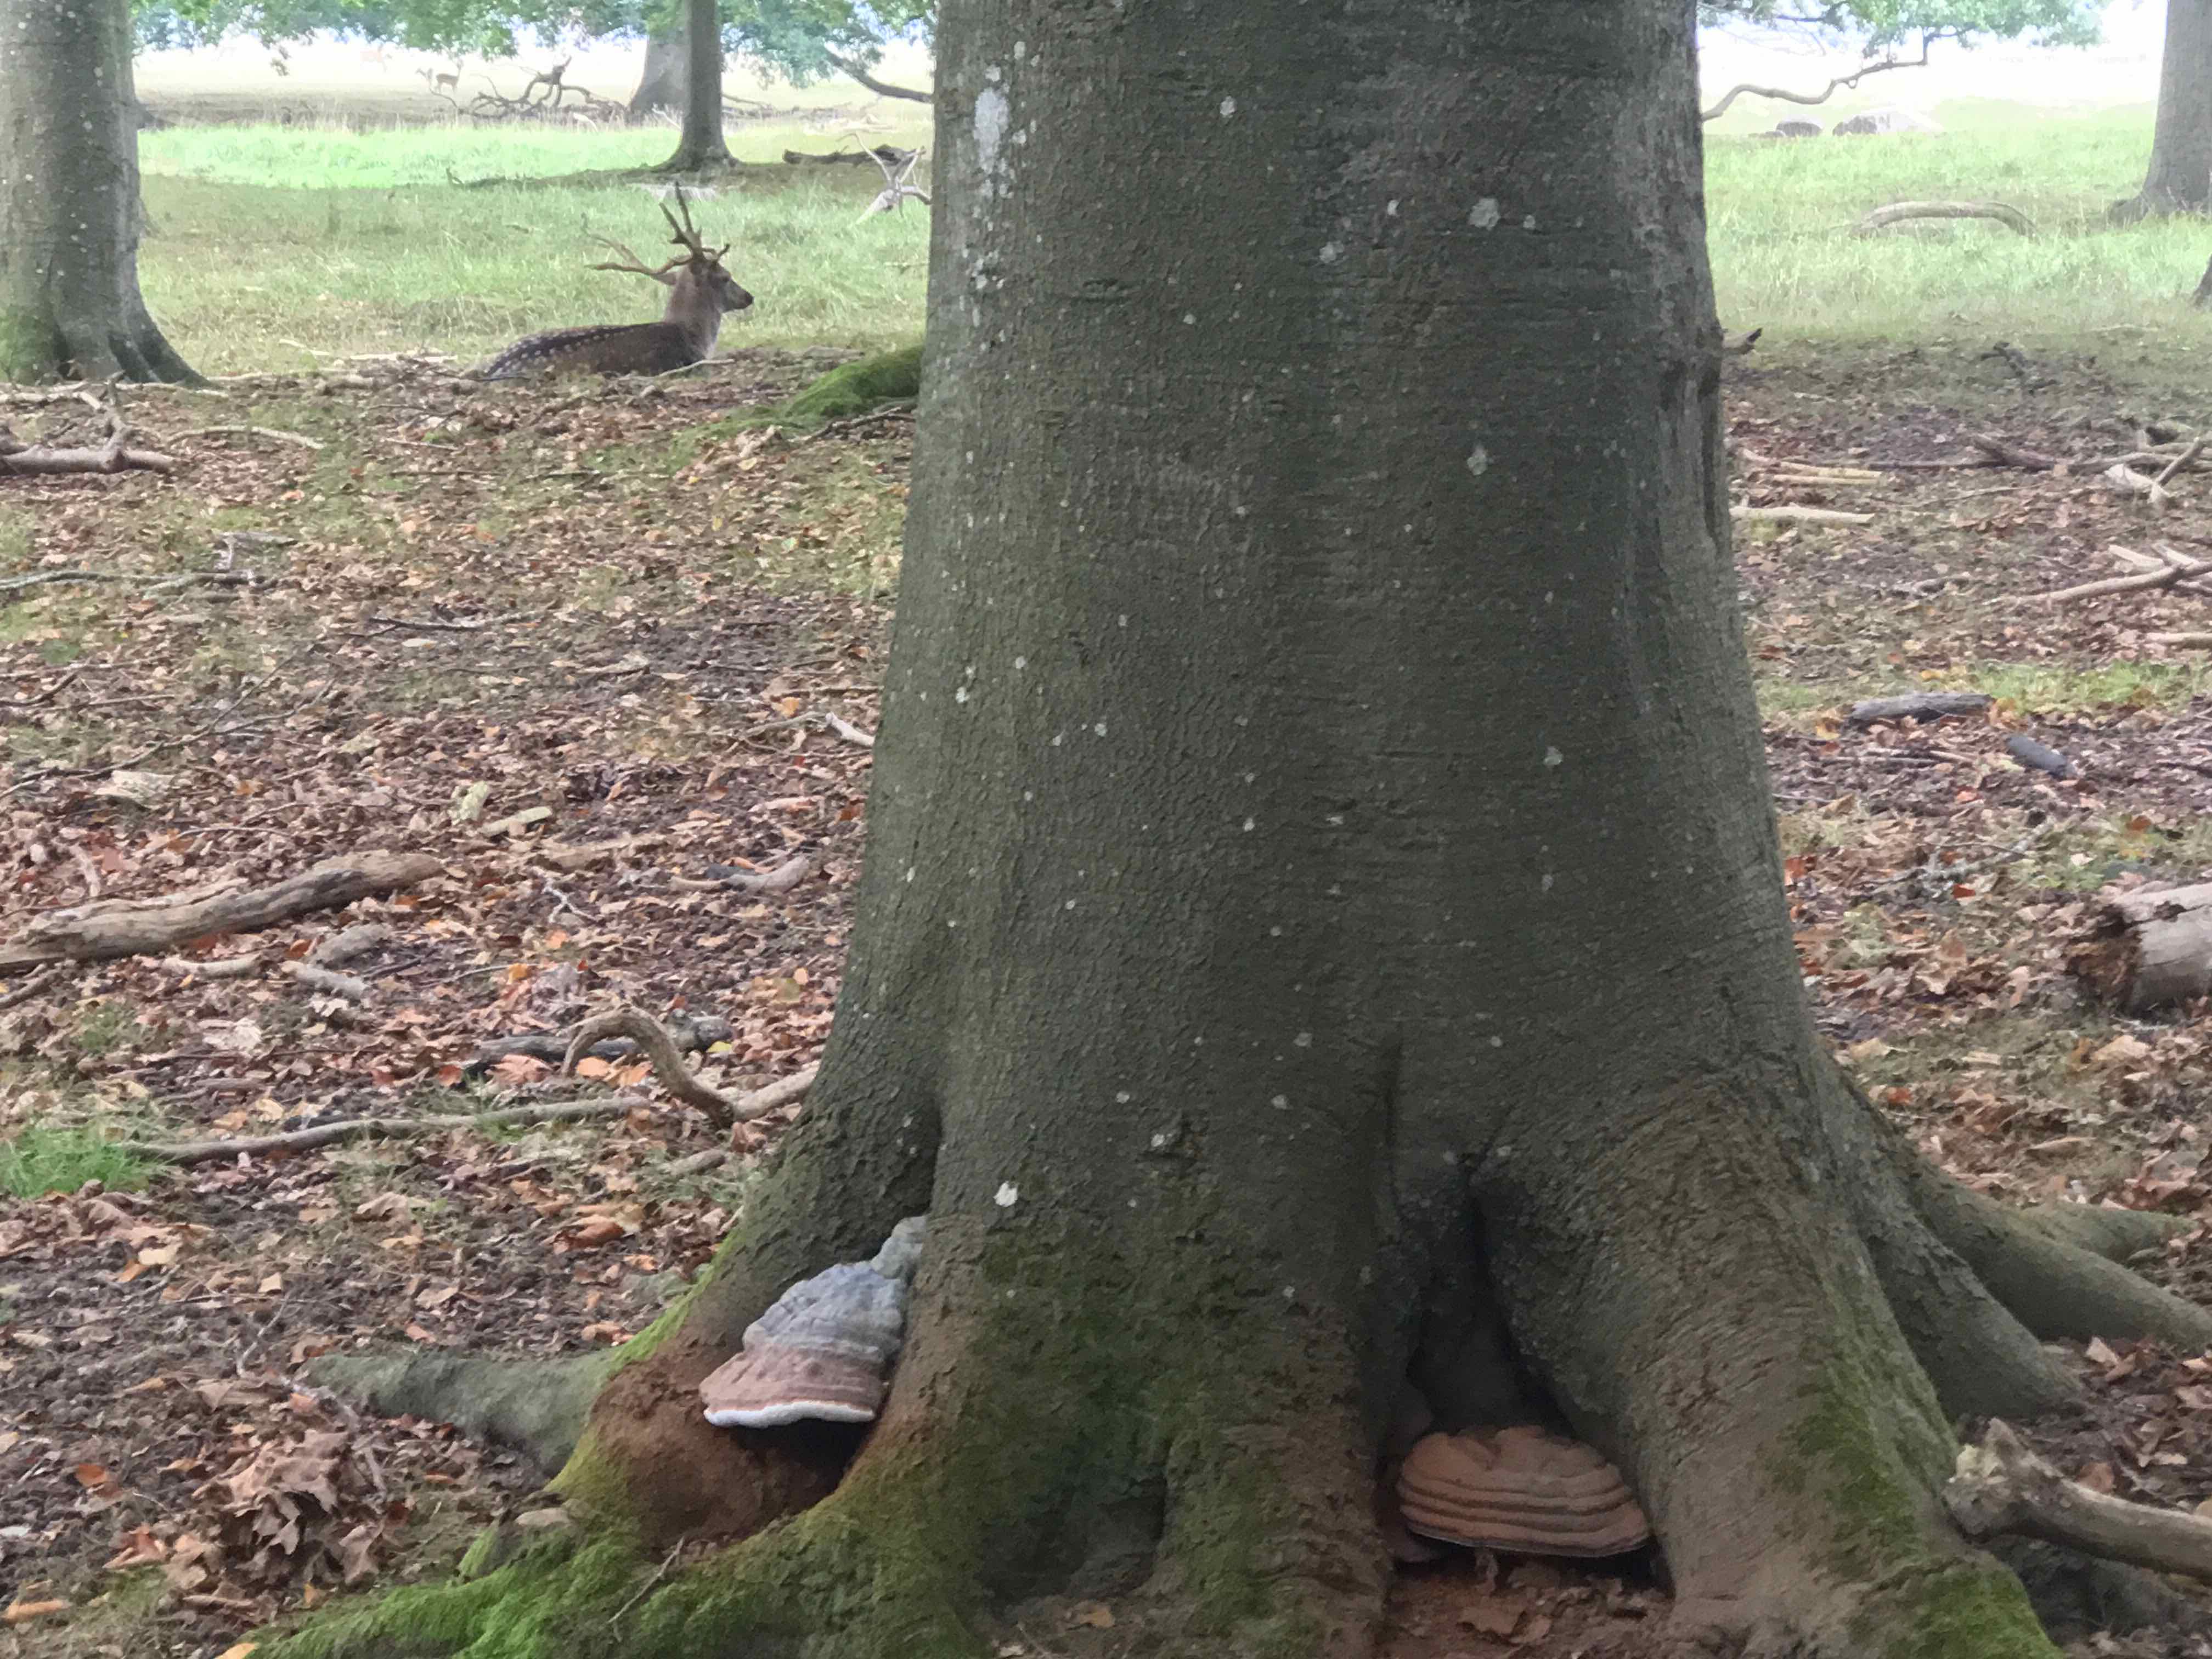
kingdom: Fungi
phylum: Basidiomycota
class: Agaricomycetes
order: Polyporales
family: Polyporaceae
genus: Ganoderma
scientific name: Ganoderma pfeifferi
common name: kobberrød lakporesvamp
